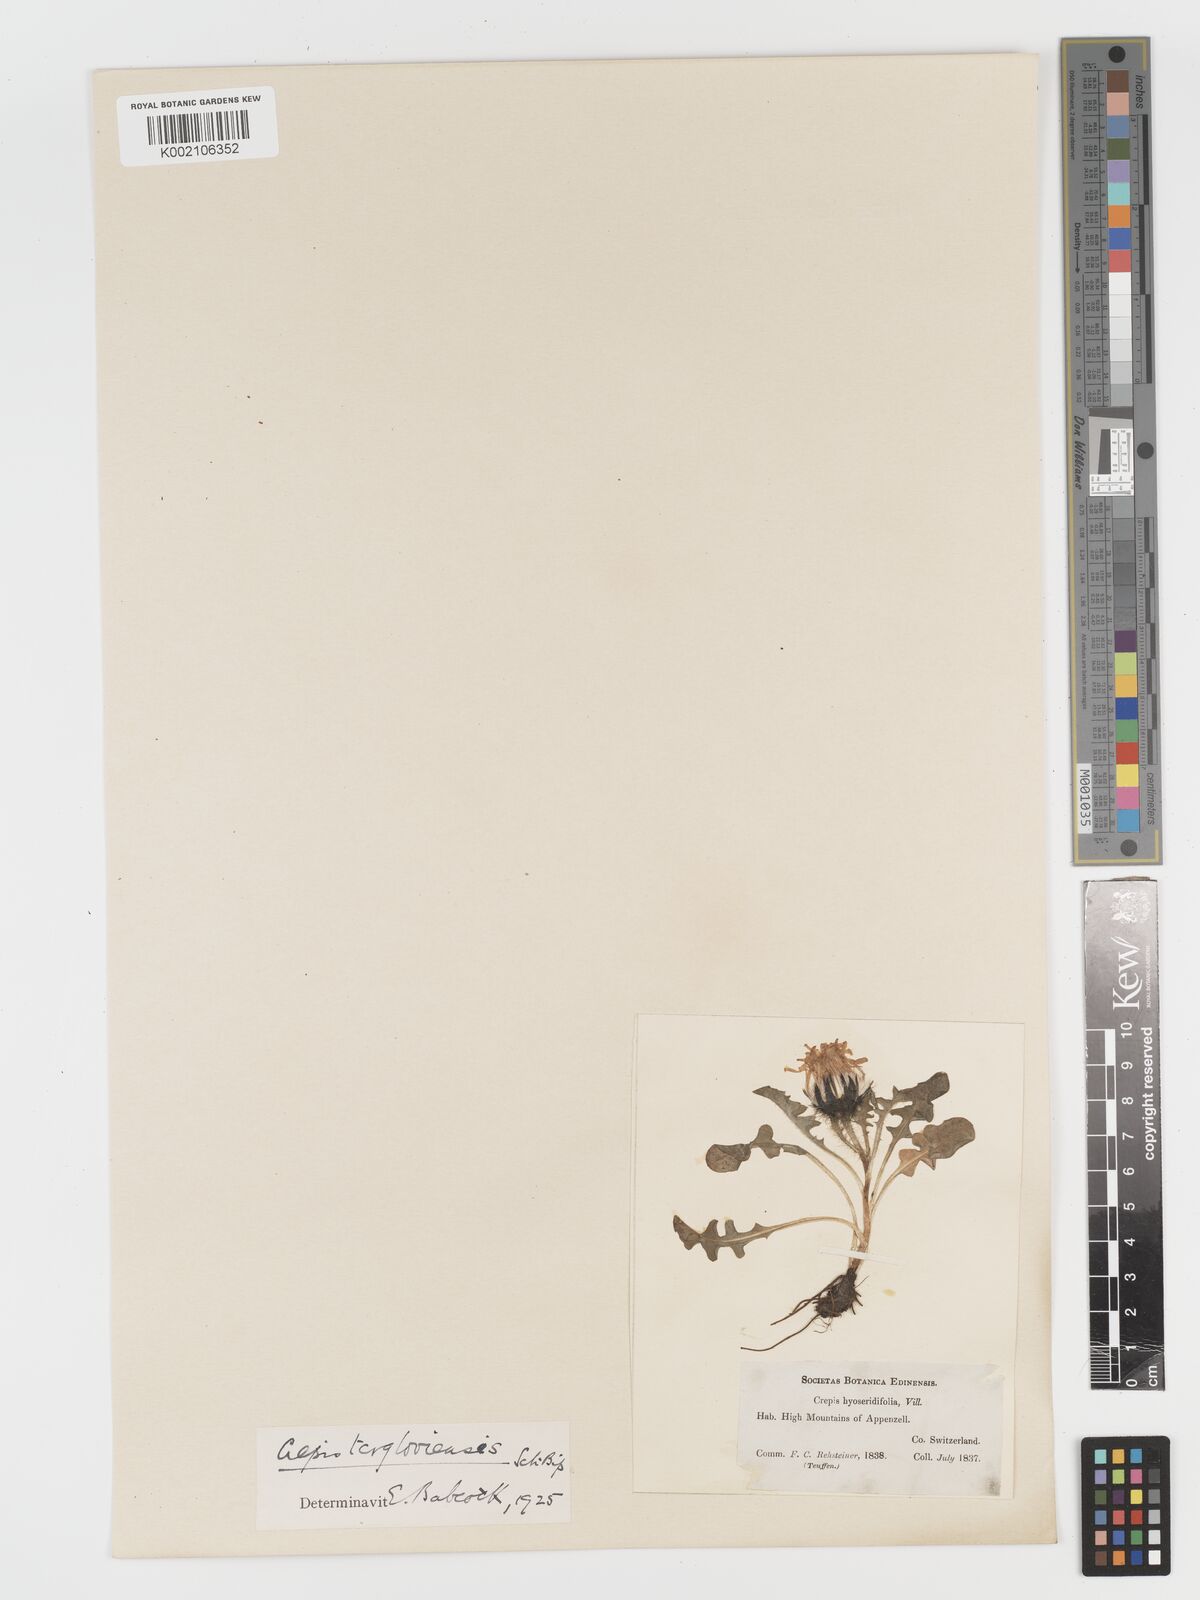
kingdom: Plantae
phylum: Tracheophyta
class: Magnoliopsida
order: Asterales
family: Asteraceae
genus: Crepis
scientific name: Crepis
